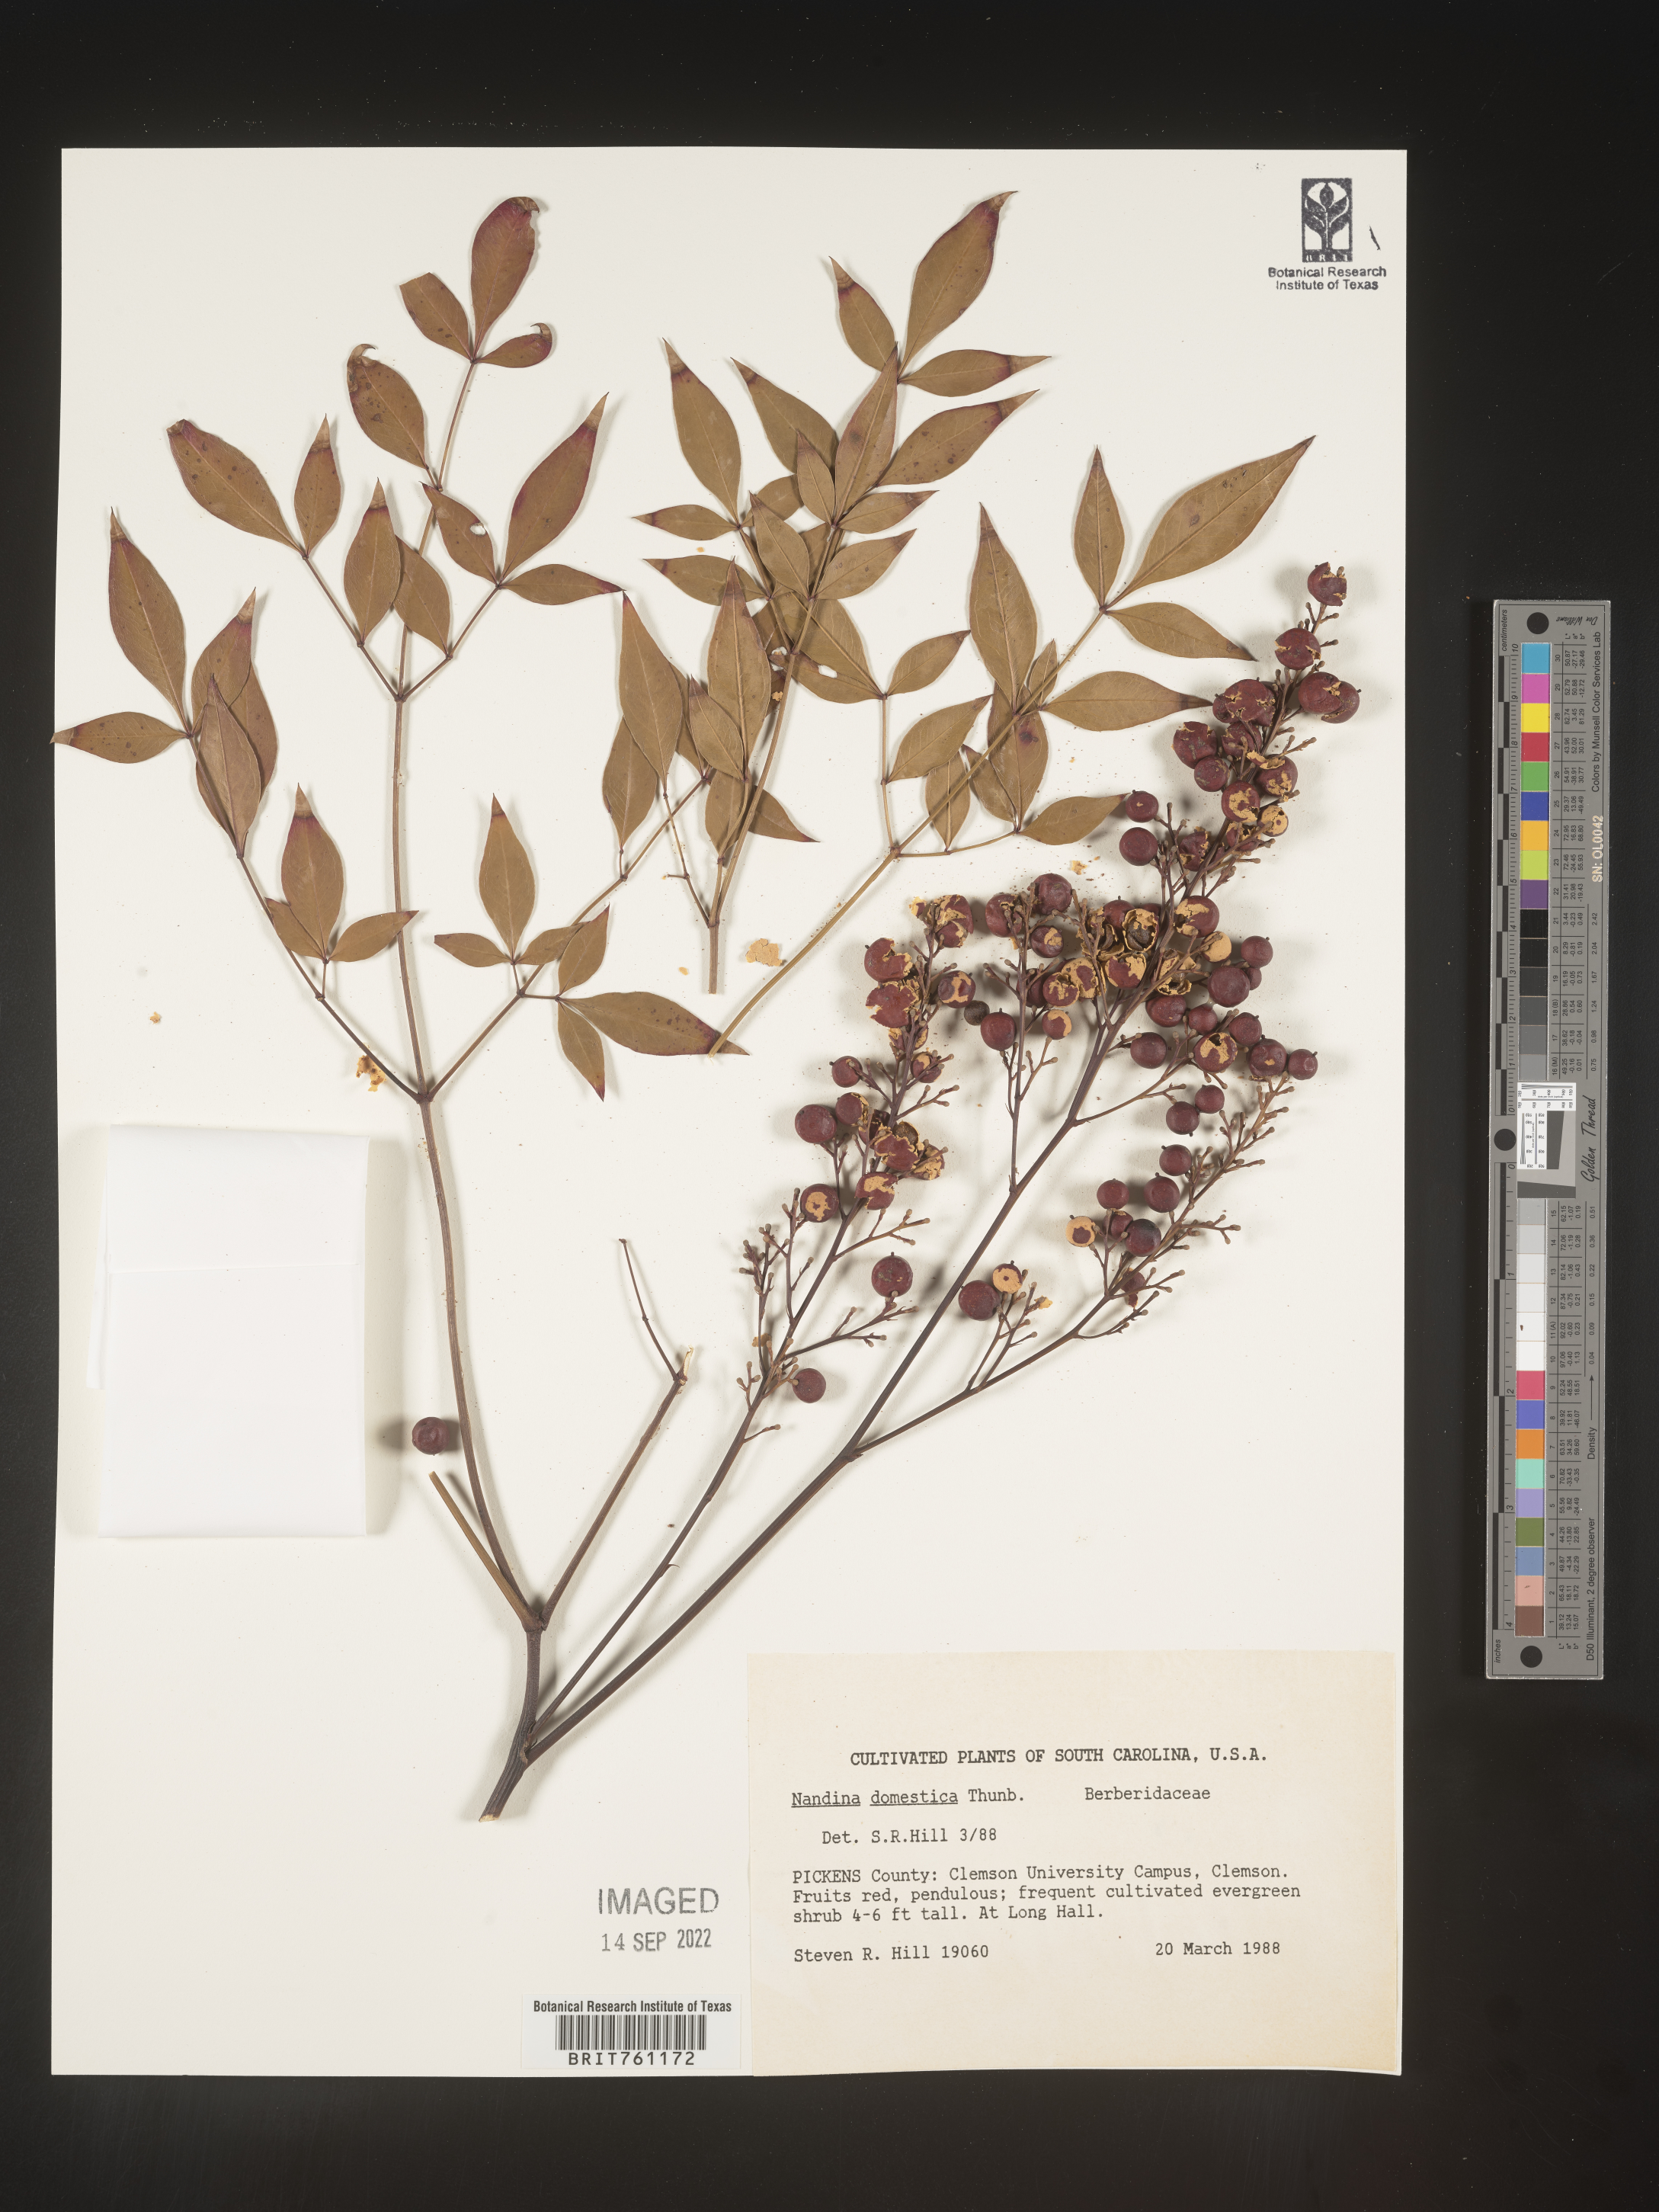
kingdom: Plantae
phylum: Tracheophyta
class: Magnoliopsida
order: Ranunculales
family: Berberidaceae
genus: Nandina
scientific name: Nandina
